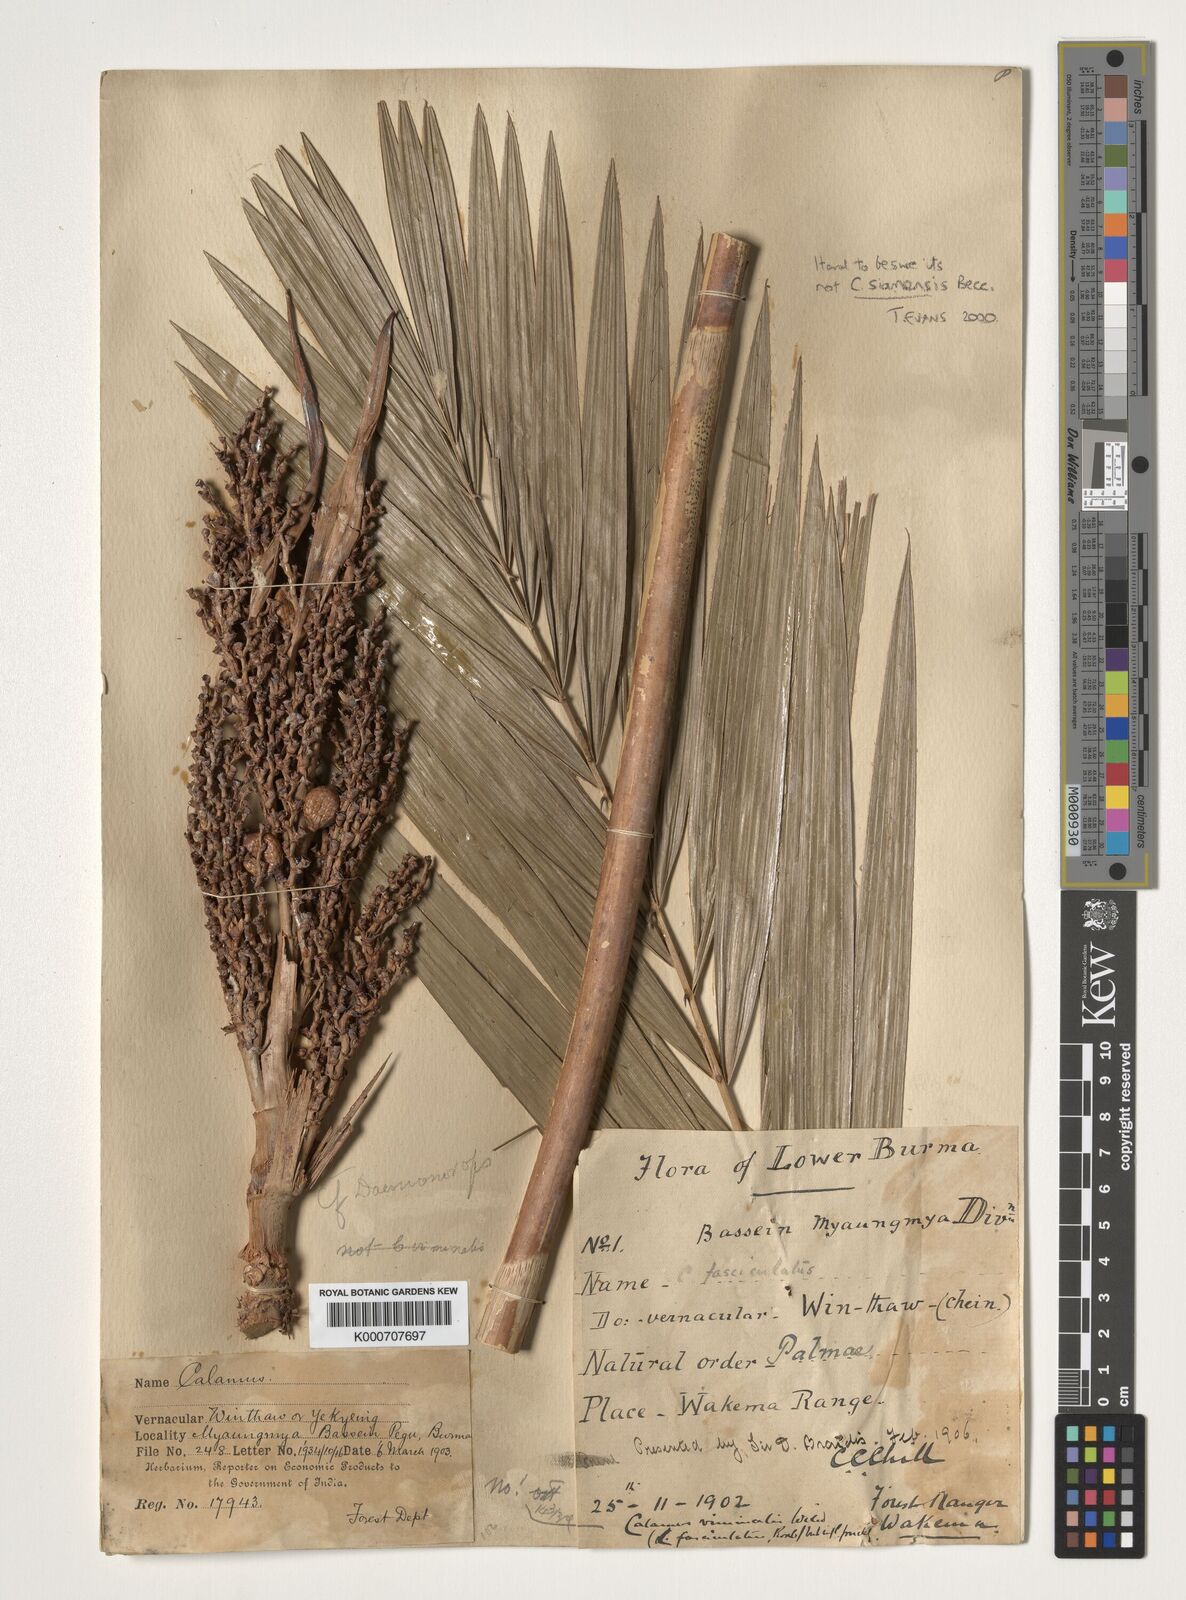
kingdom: Plantae
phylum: Tracheophyta
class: Liliopsida
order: Arecales
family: Arecaceae
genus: Calamus
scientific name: Calamus viminalis
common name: Osier-like rattan palm
